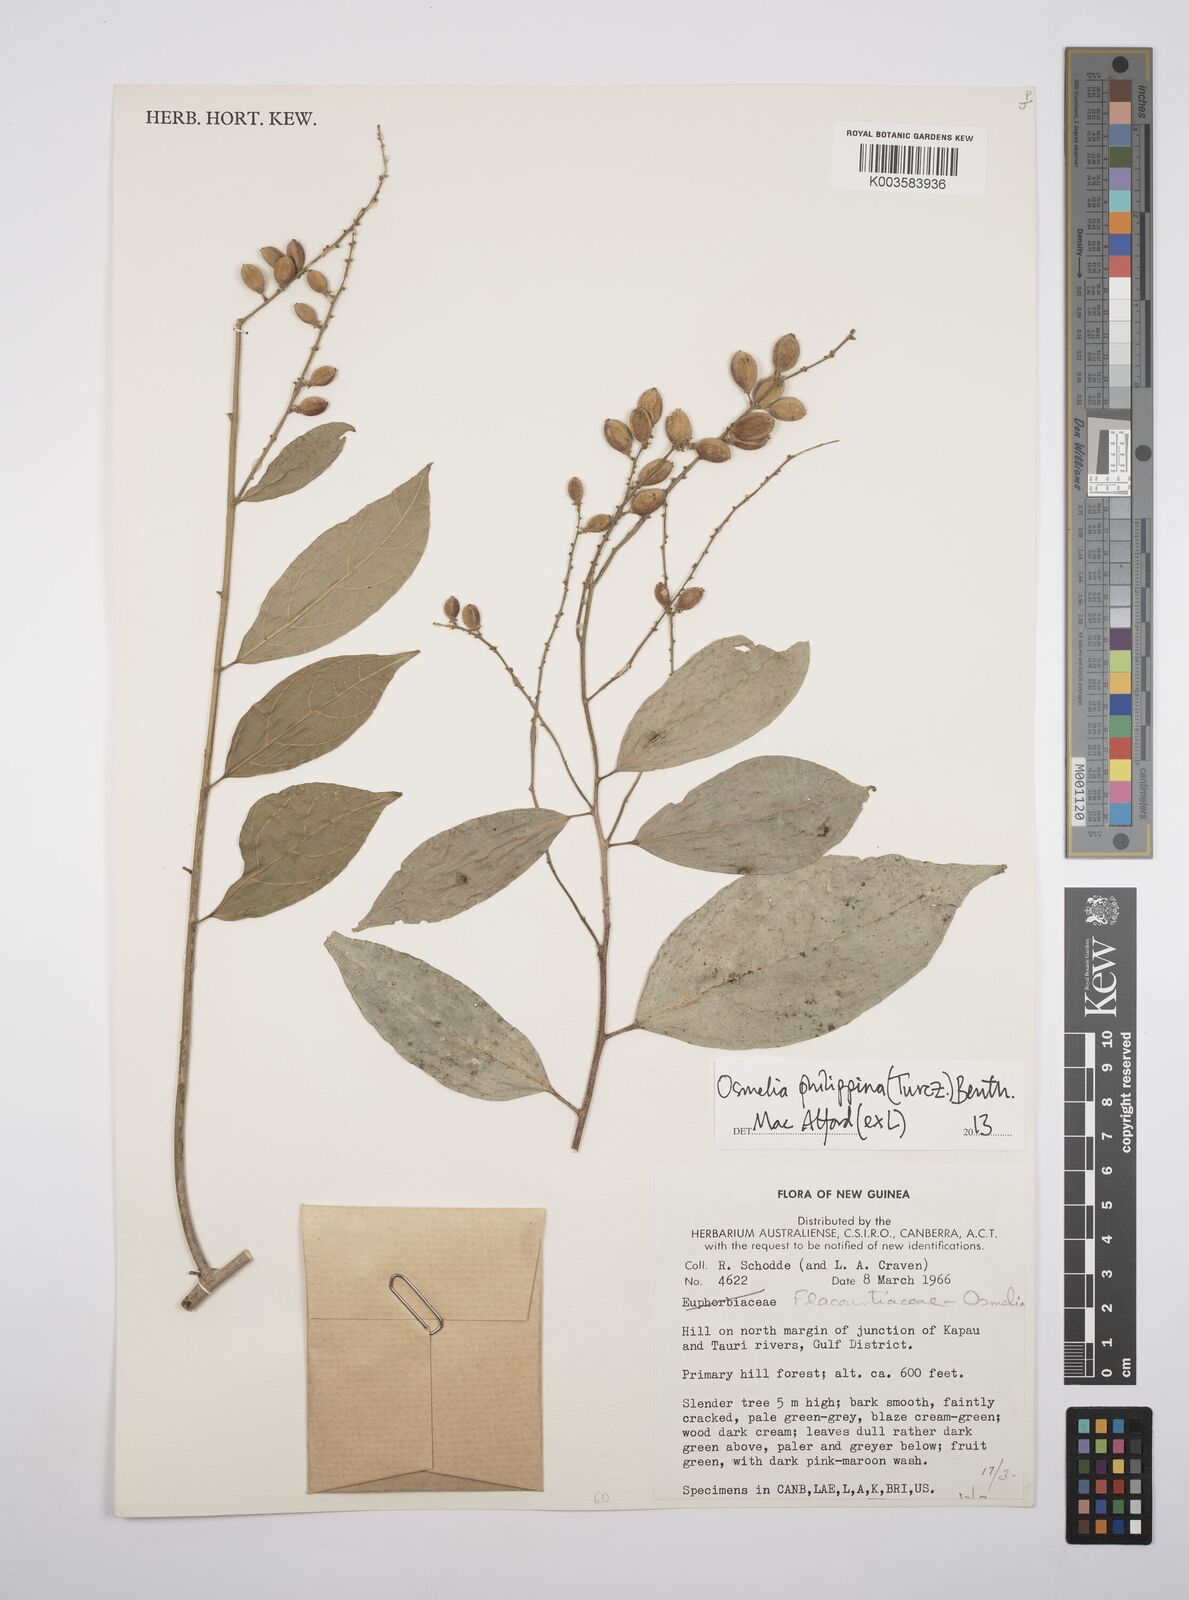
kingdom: Plantae
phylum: Tracheophyta
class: Magnoliopsida
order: Malpighiales
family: Salicaceae
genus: Osmelia
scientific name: Osmelia philippina
